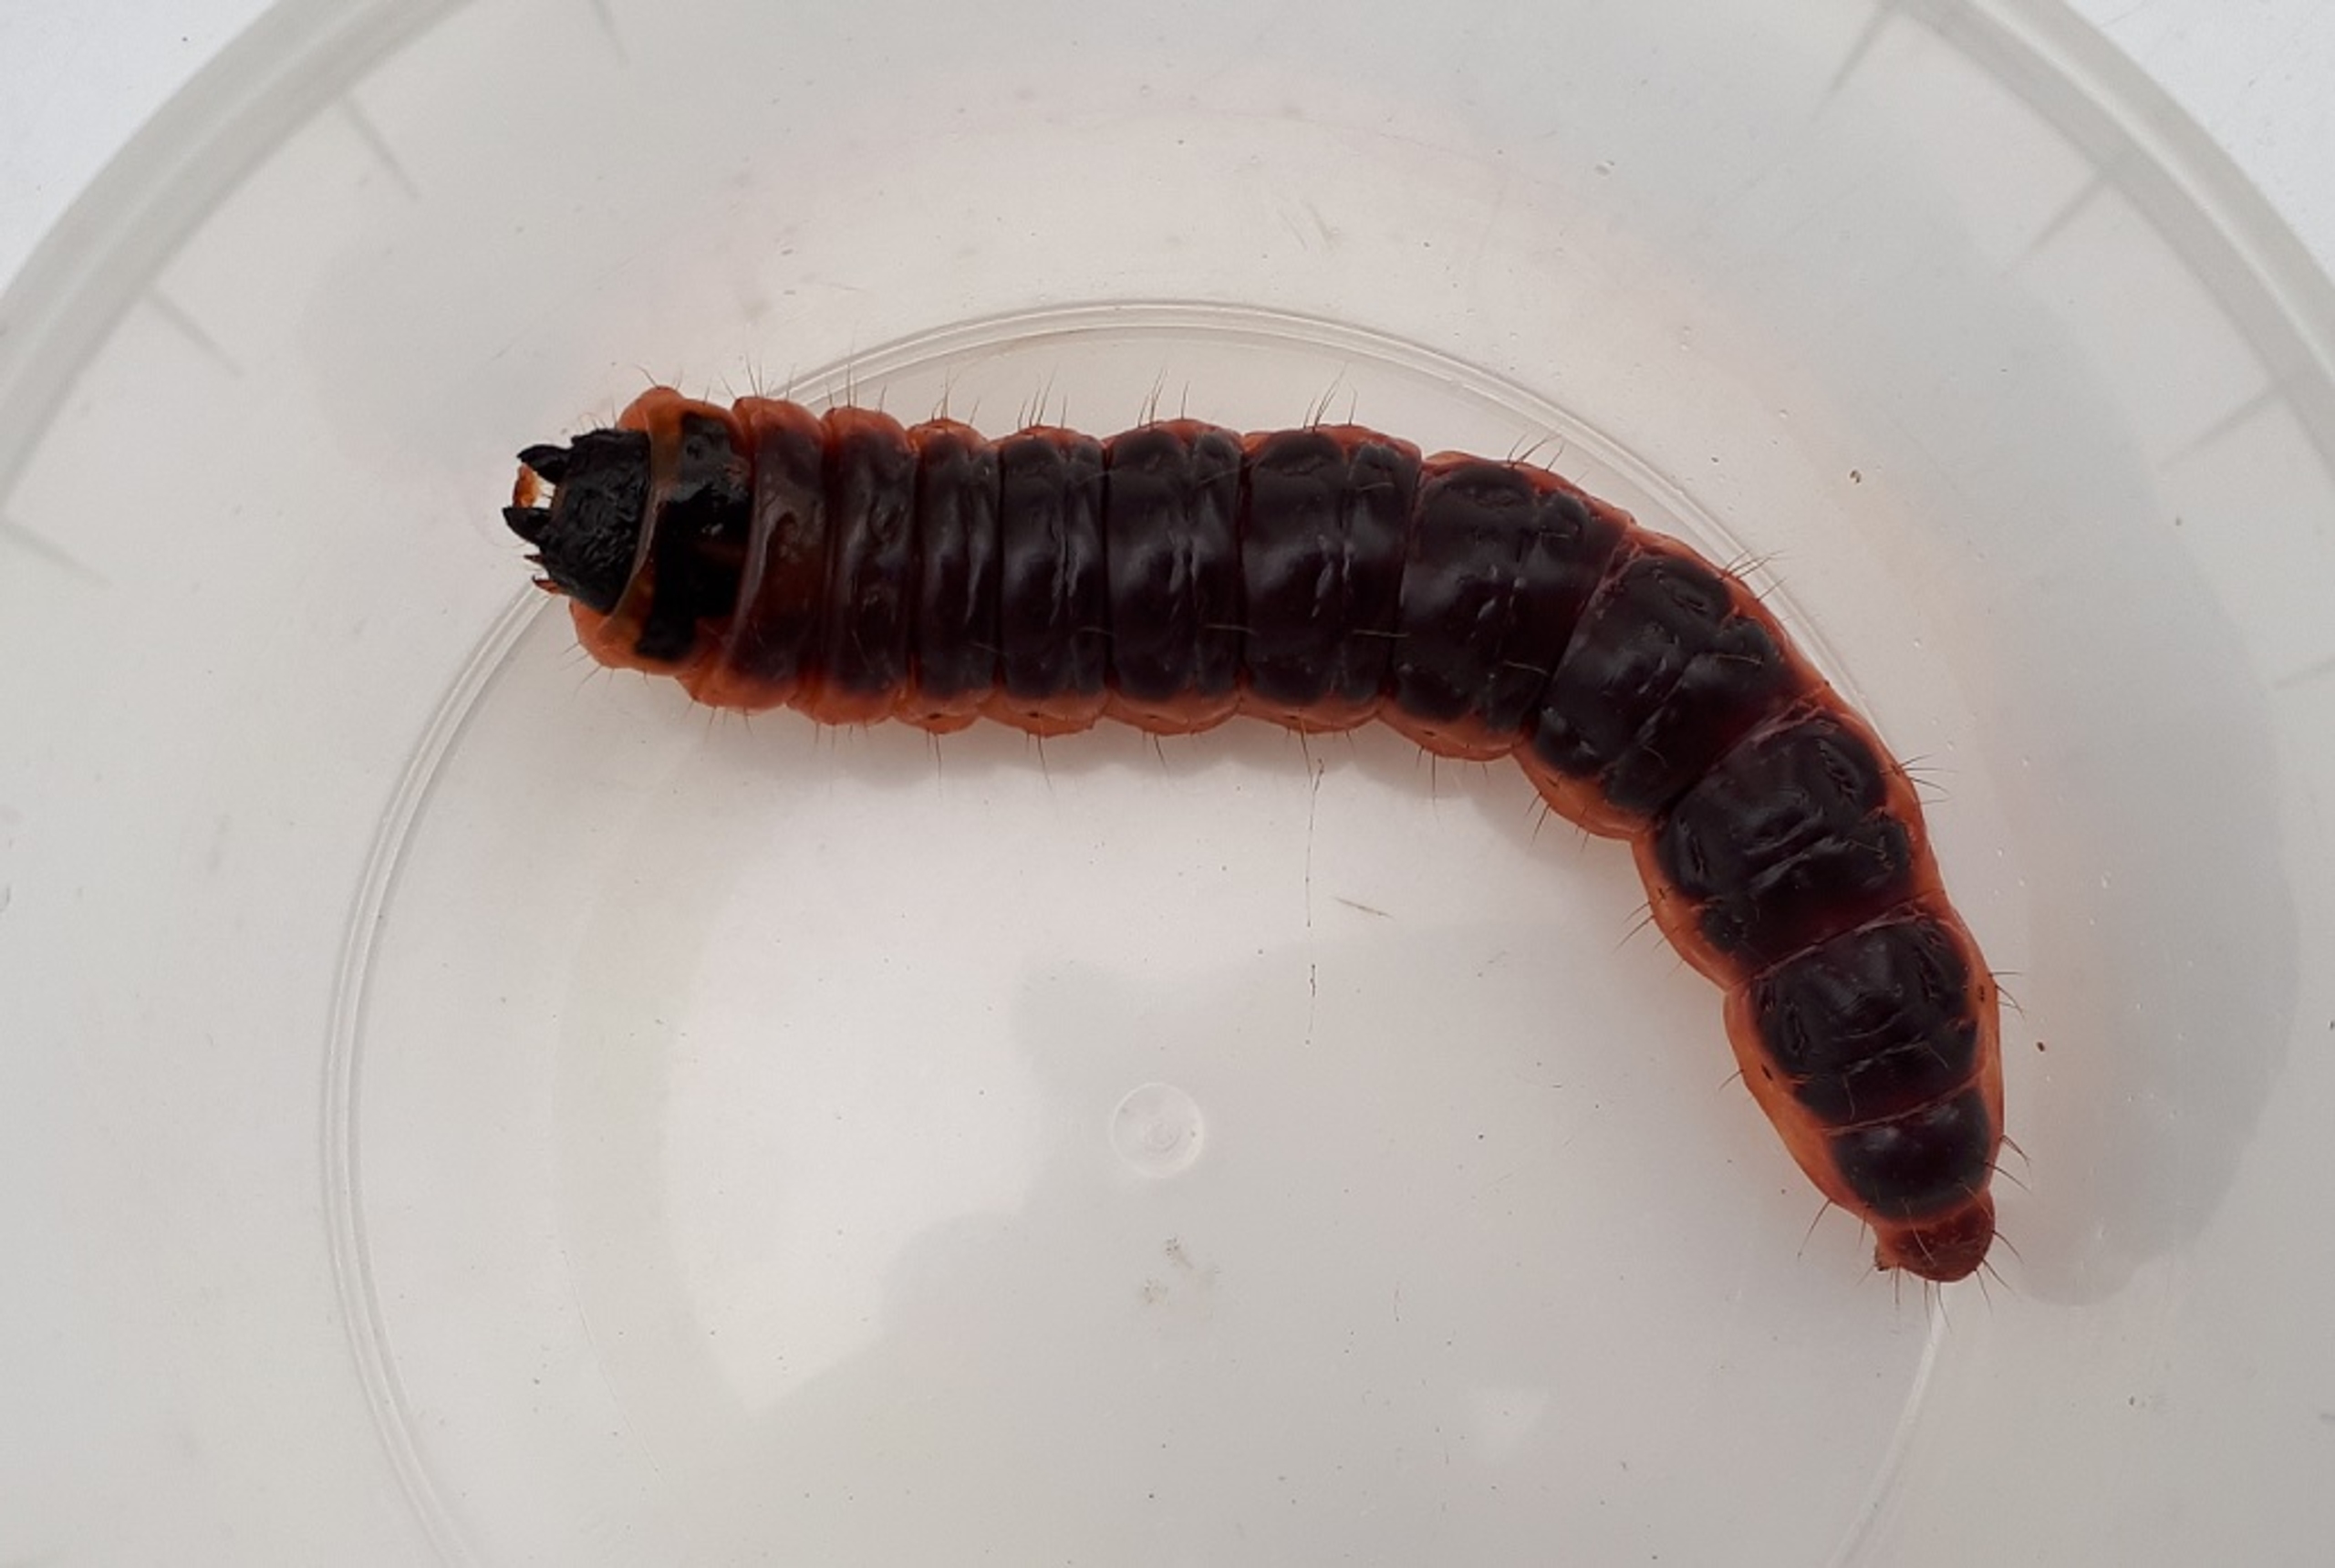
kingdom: Animalia
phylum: Arthropoda
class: Insecta
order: Lepidoptera
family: Cossidae
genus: Cossus
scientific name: Cossus cossus
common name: Pileborer
